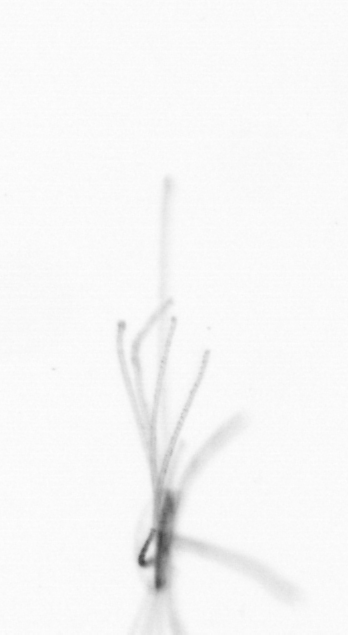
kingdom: Chromista
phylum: Ochrophyta
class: Bacillariophyceae
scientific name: Bacillariophyceae
